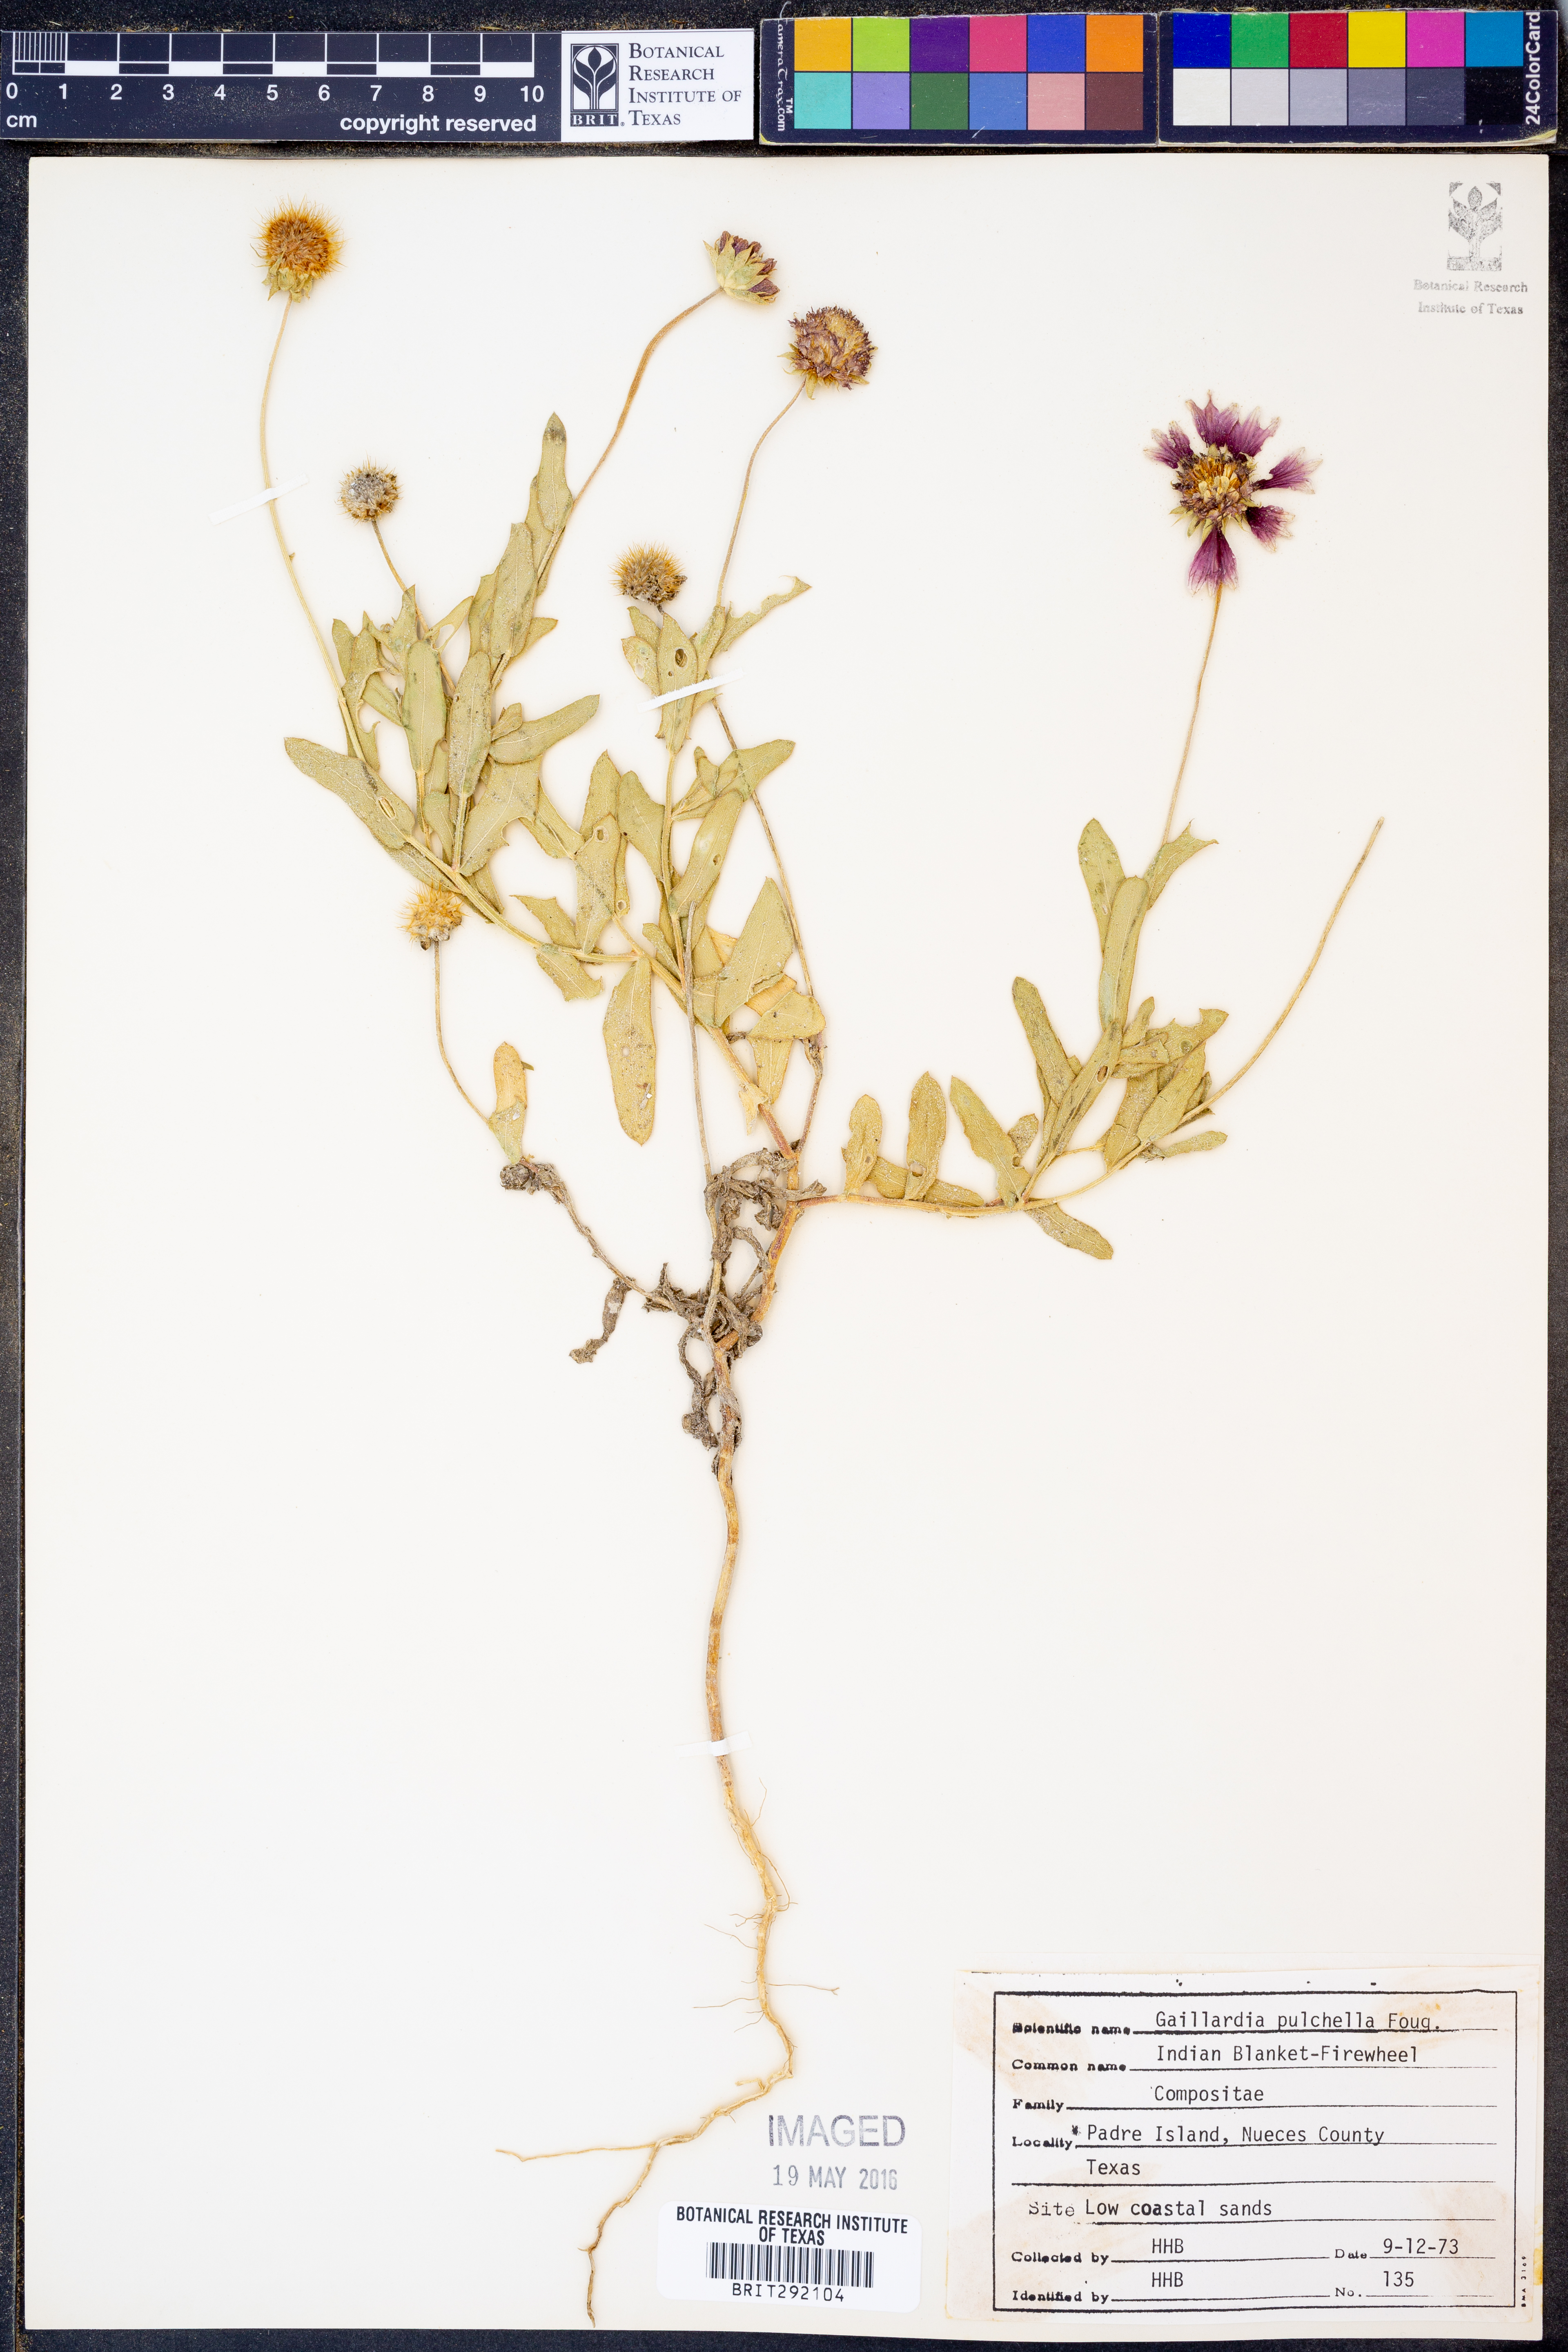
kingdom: Plantae
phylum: Tracheophyta
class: Magnoliopsida
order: Asterales
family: Asteraceae
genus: Gaillardia
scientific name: Gaillardia pulchella
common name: Firewheel
